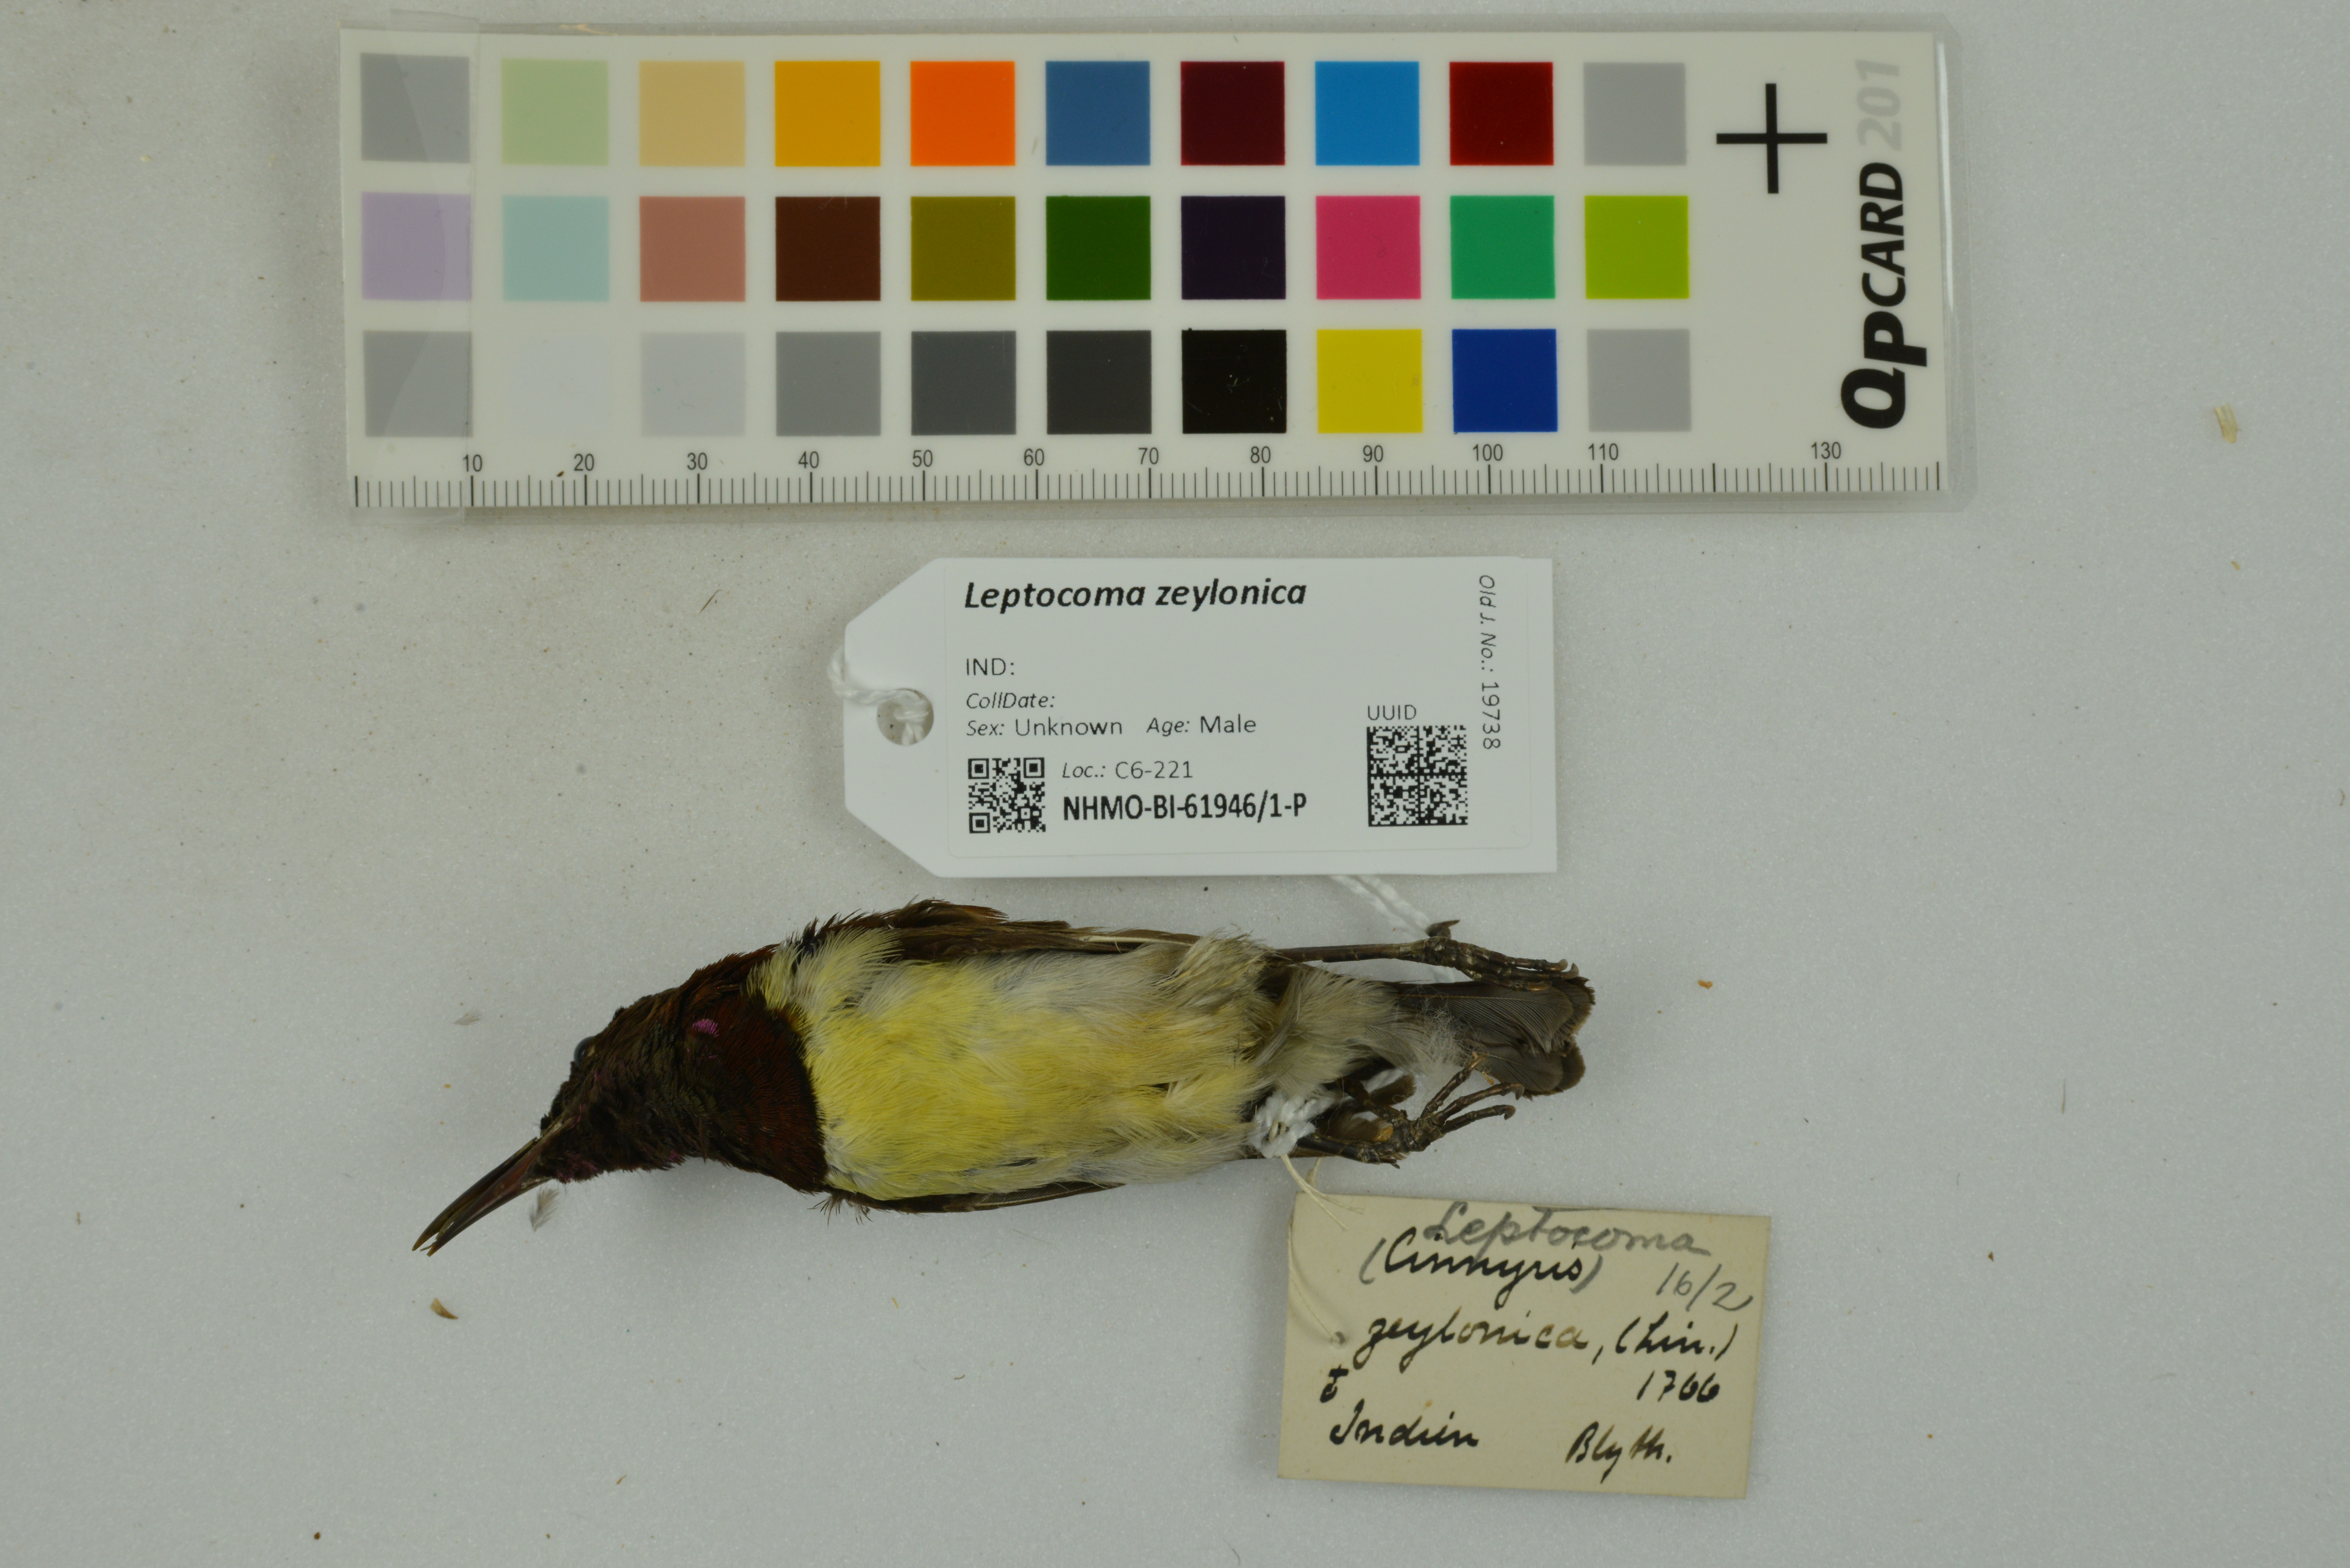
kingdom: Animalia
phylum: Chordata
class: Aves
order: Passeriformes
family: Nectariniidae
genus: Leptocoma
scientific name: Leptocoma zeylonica
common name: Purple-rumped sunbird
